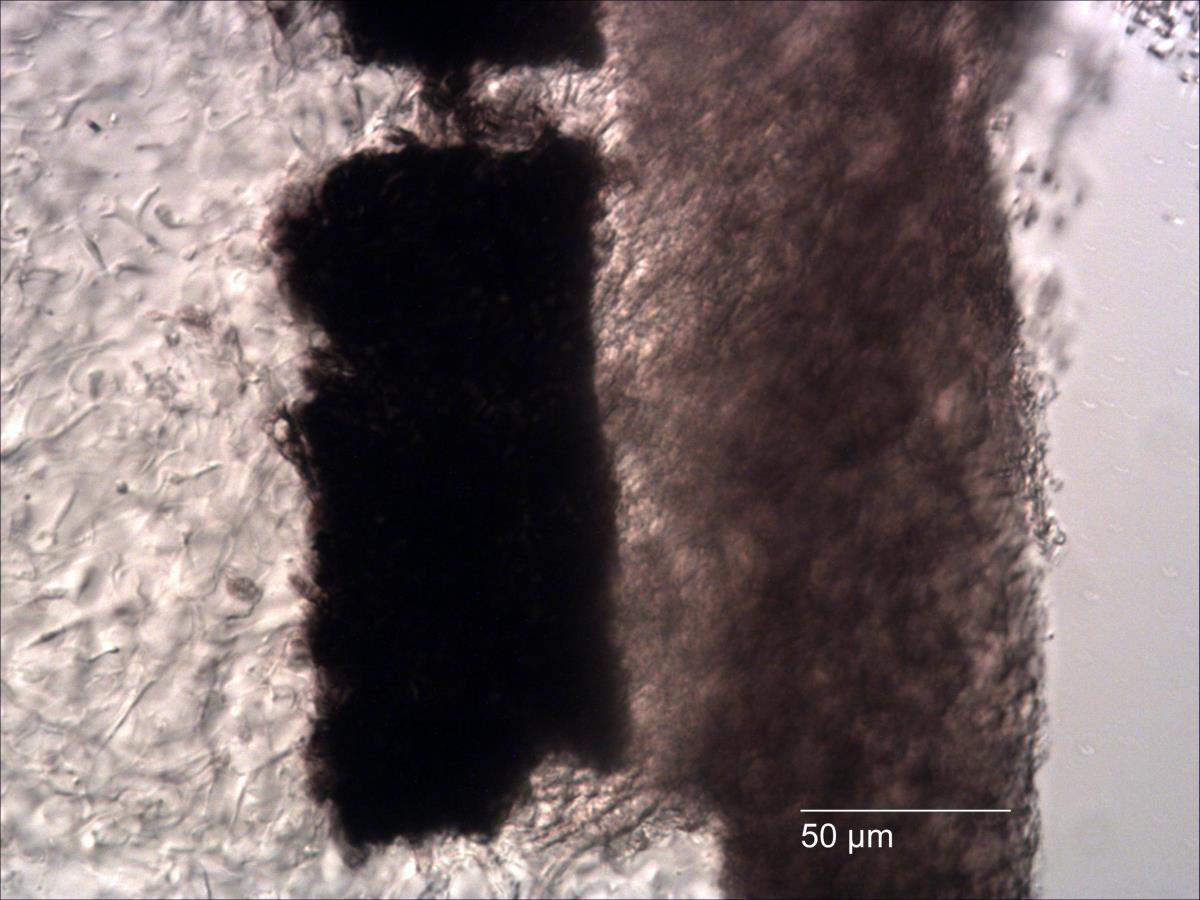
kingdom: Fungi
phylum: Basidiomycota
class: Agaricomycetes
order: Agaricales
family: Agaricaceae
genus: Cyathus
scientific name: Cyathus triplex
